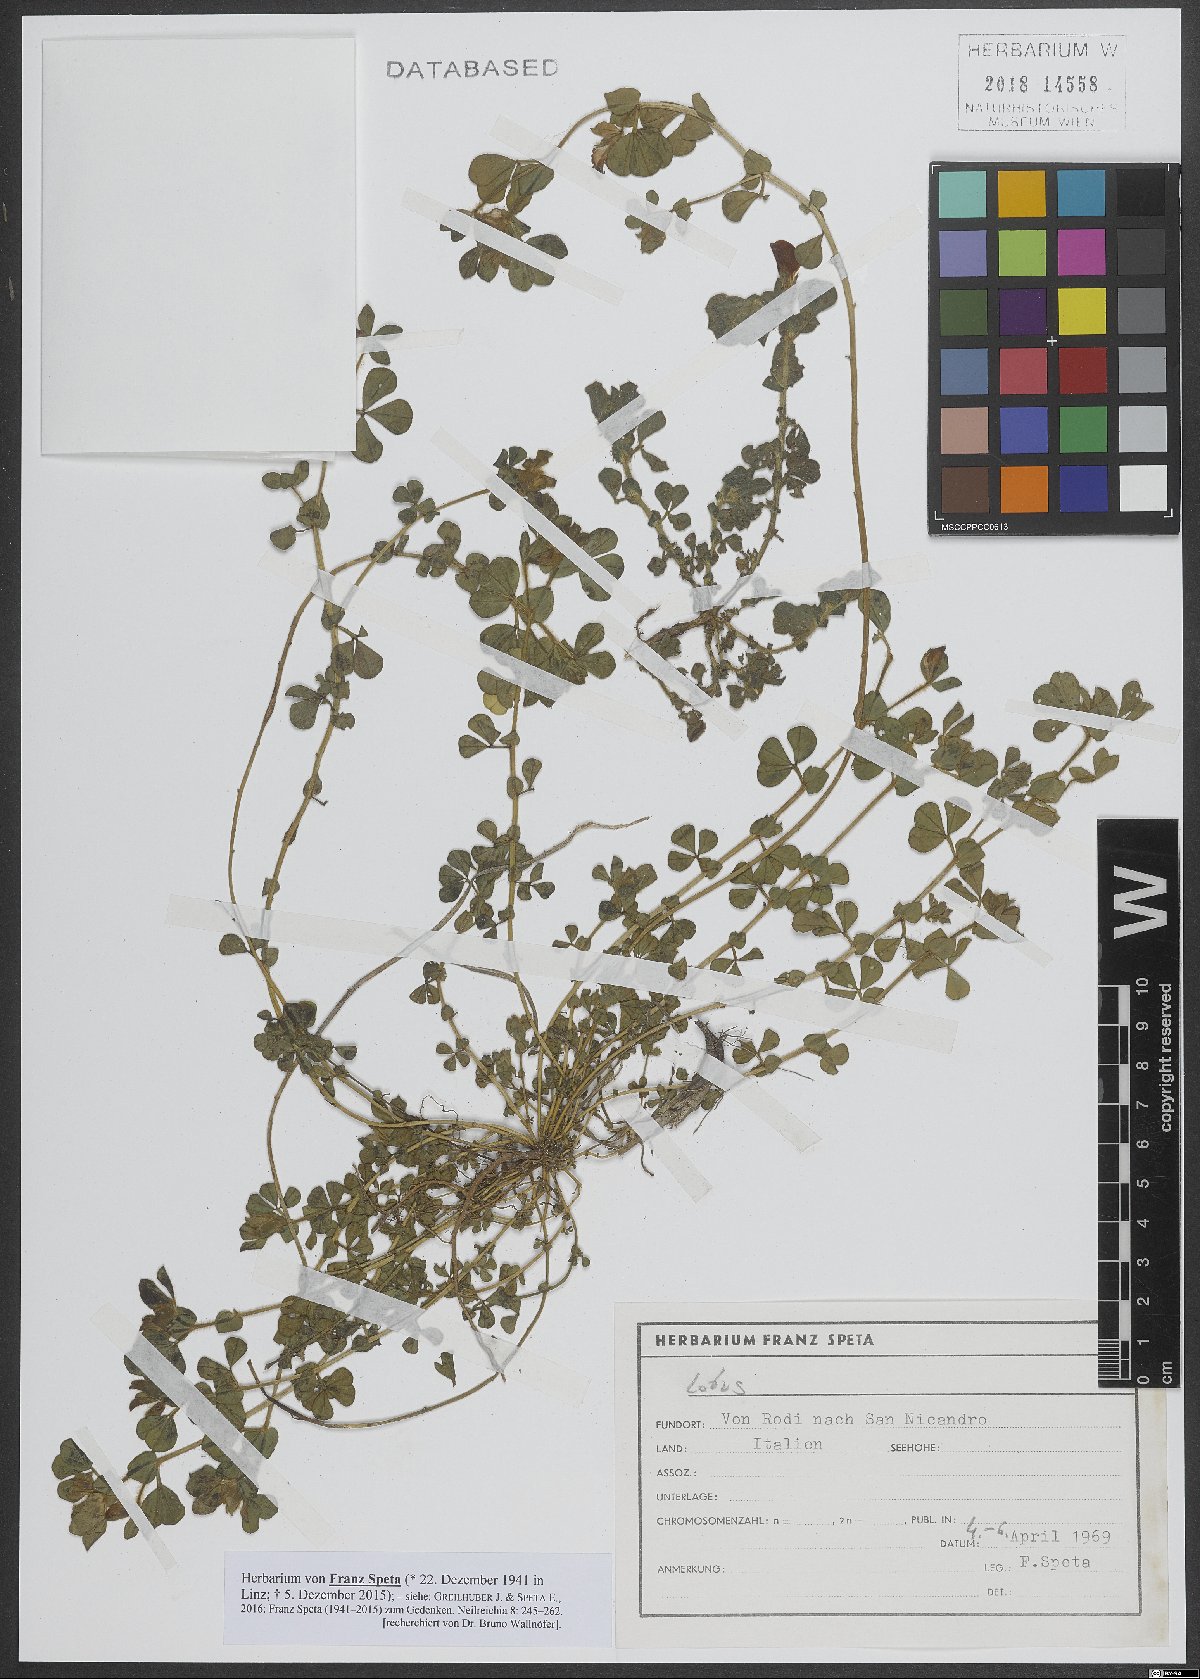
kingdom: Plantae
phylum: Tracheophyta
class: Magnoliopsida
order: Fabales
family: Fabaceae
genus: Lotus
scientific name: Lotus
